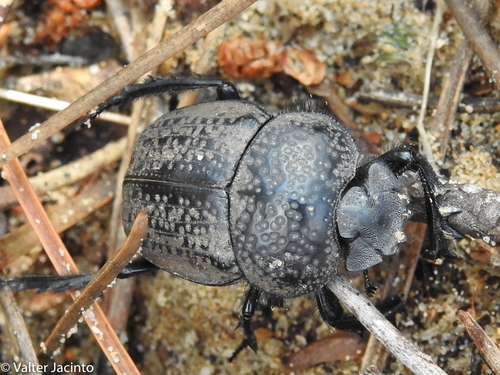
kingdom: Animalia
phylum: Arthropoda
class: Insecta
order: Coleoptera
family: Scarabaeidae
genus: Ateuchetus
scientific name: Ateuchetus cicatricosus
